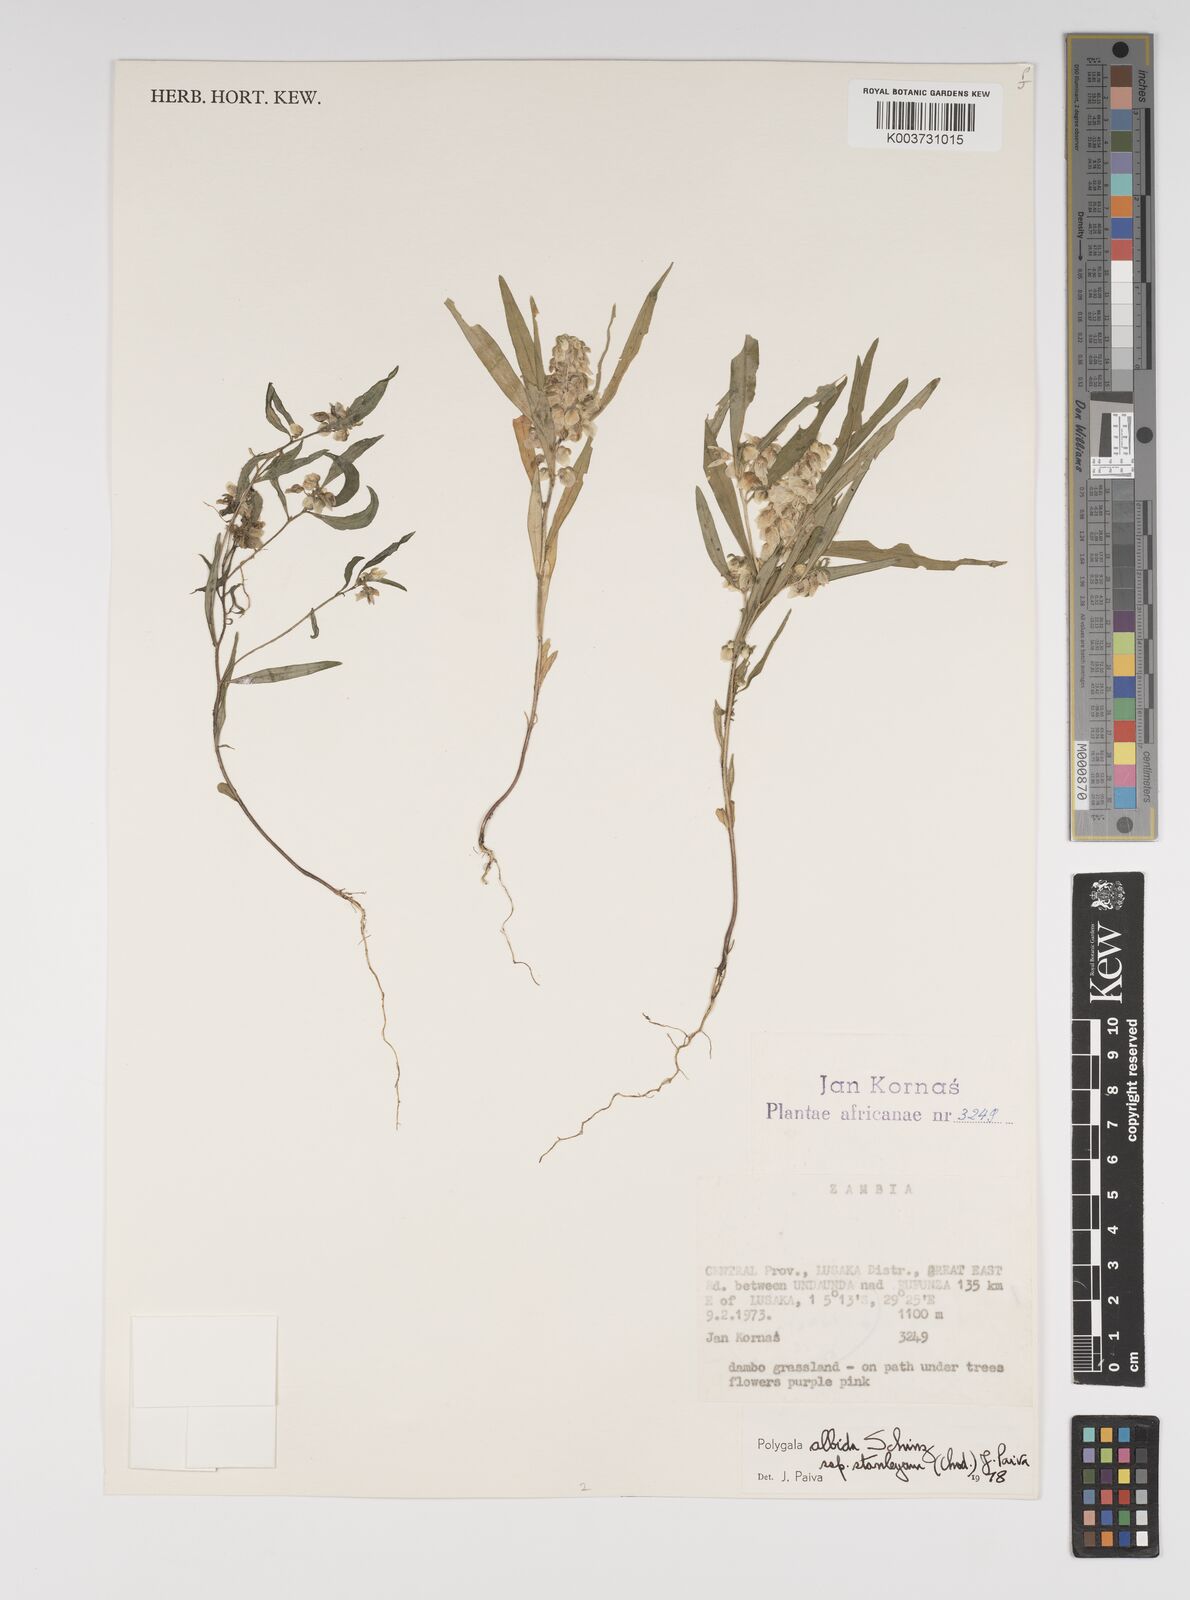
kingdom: Plantae
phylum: Tracheophyta
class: Magnoliopsida
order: Fabales
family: Polygalaceae
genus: Polygala
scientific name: Polygala albida
